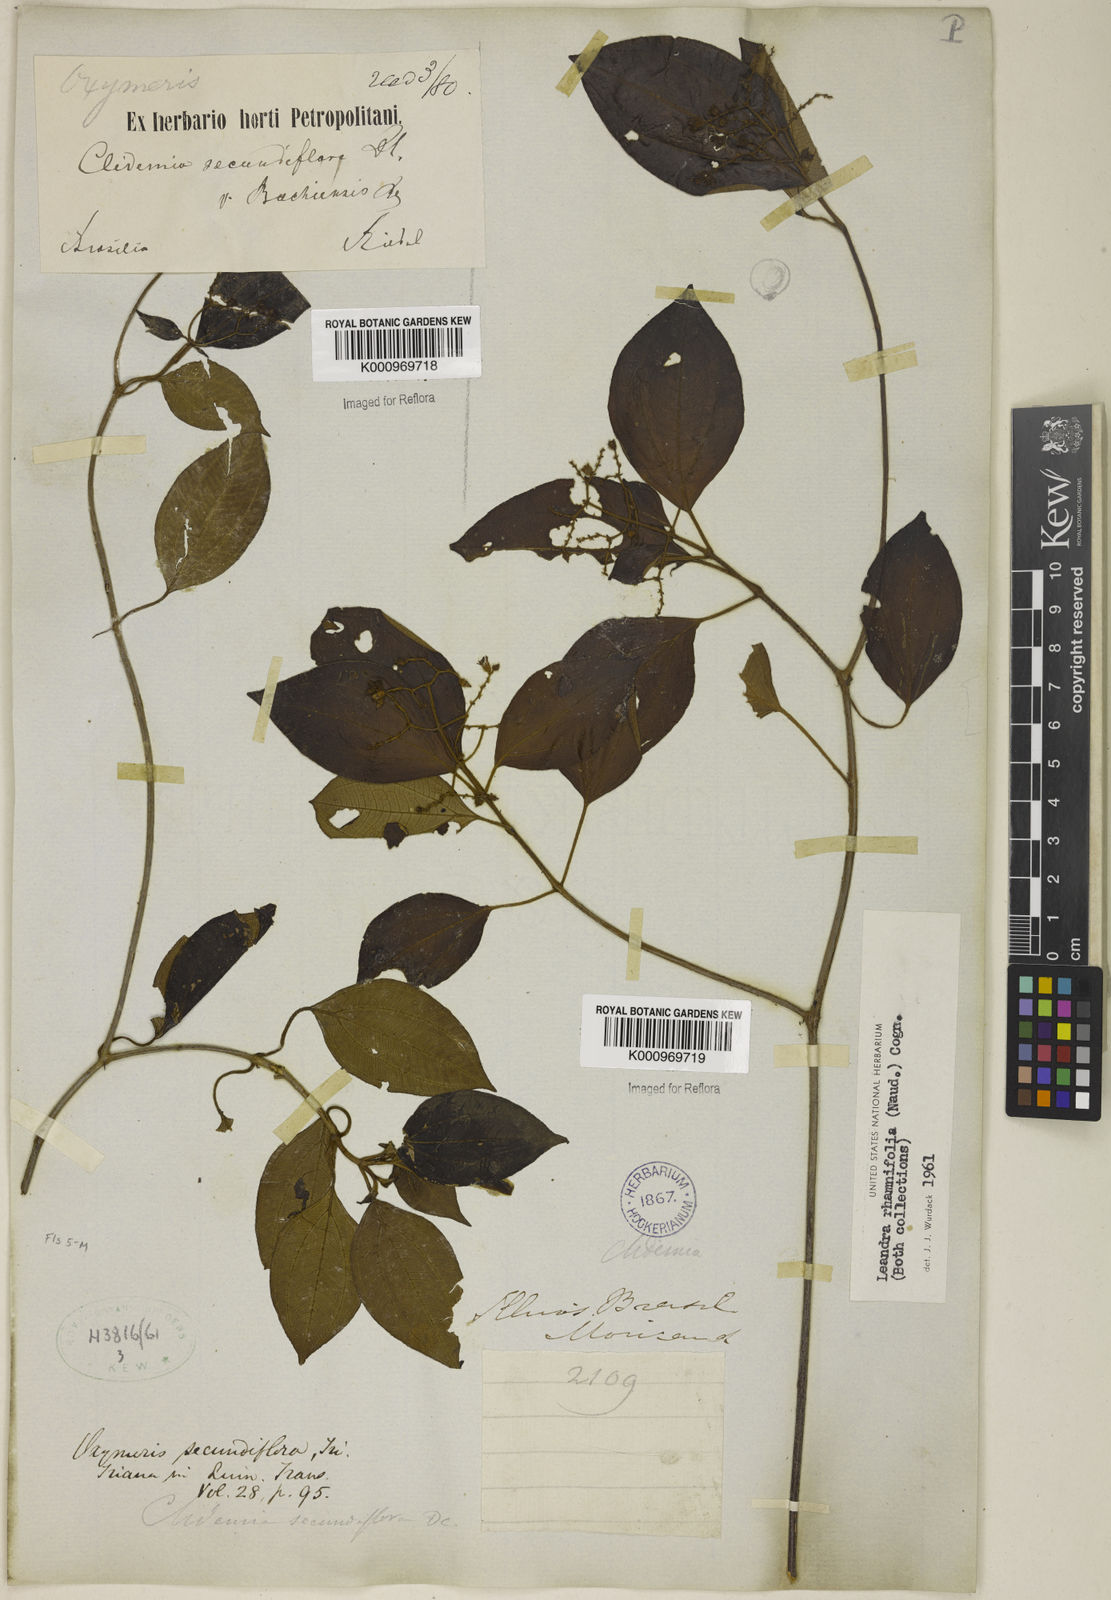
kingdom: Plantae
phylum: Tracheophyta
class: Magnoliopsida
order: Myrtales
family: Melastomataceae
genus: Miconia
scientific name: Miconia rhamnifolia
